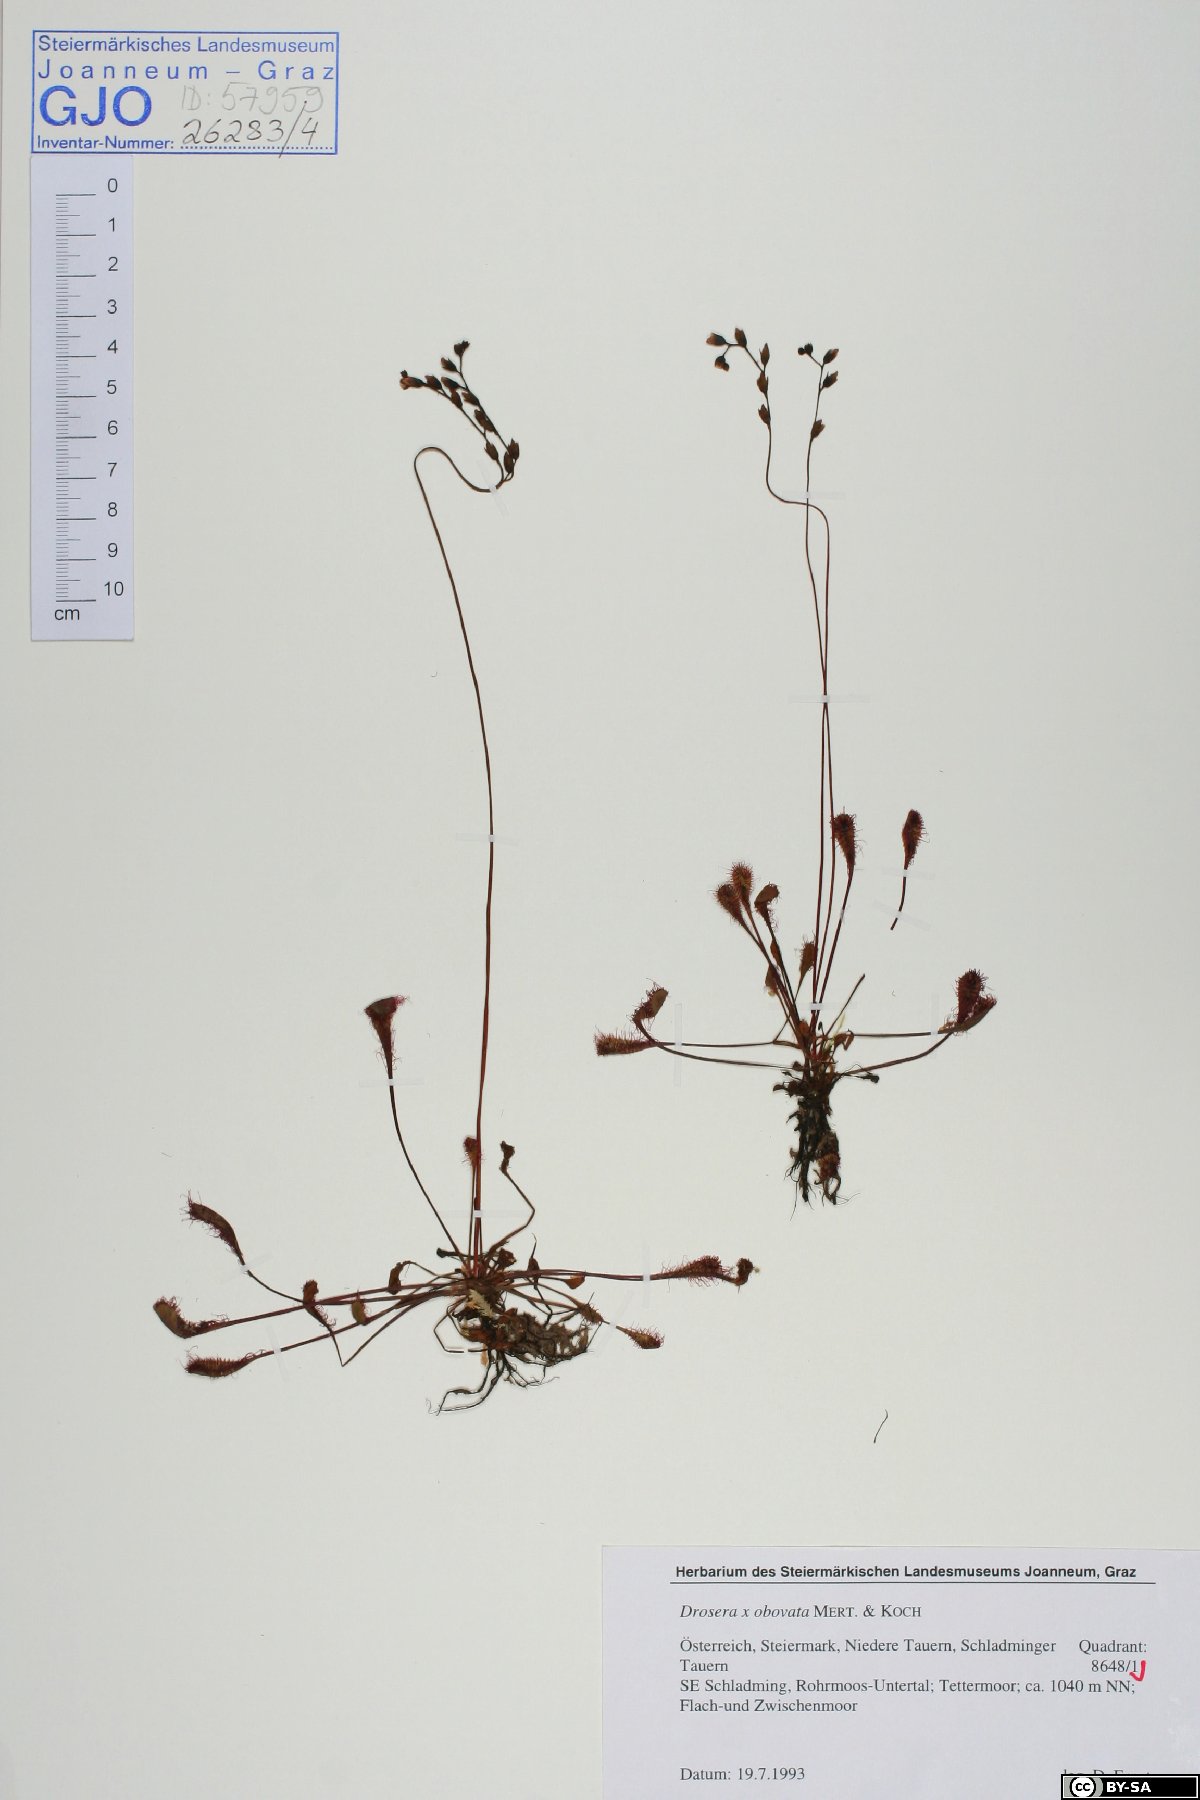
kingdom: Plantae
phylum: Tracheophyta
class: Magnoliopsida
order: Caryophyllales
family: Droseraceae
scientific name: Droseraceae
